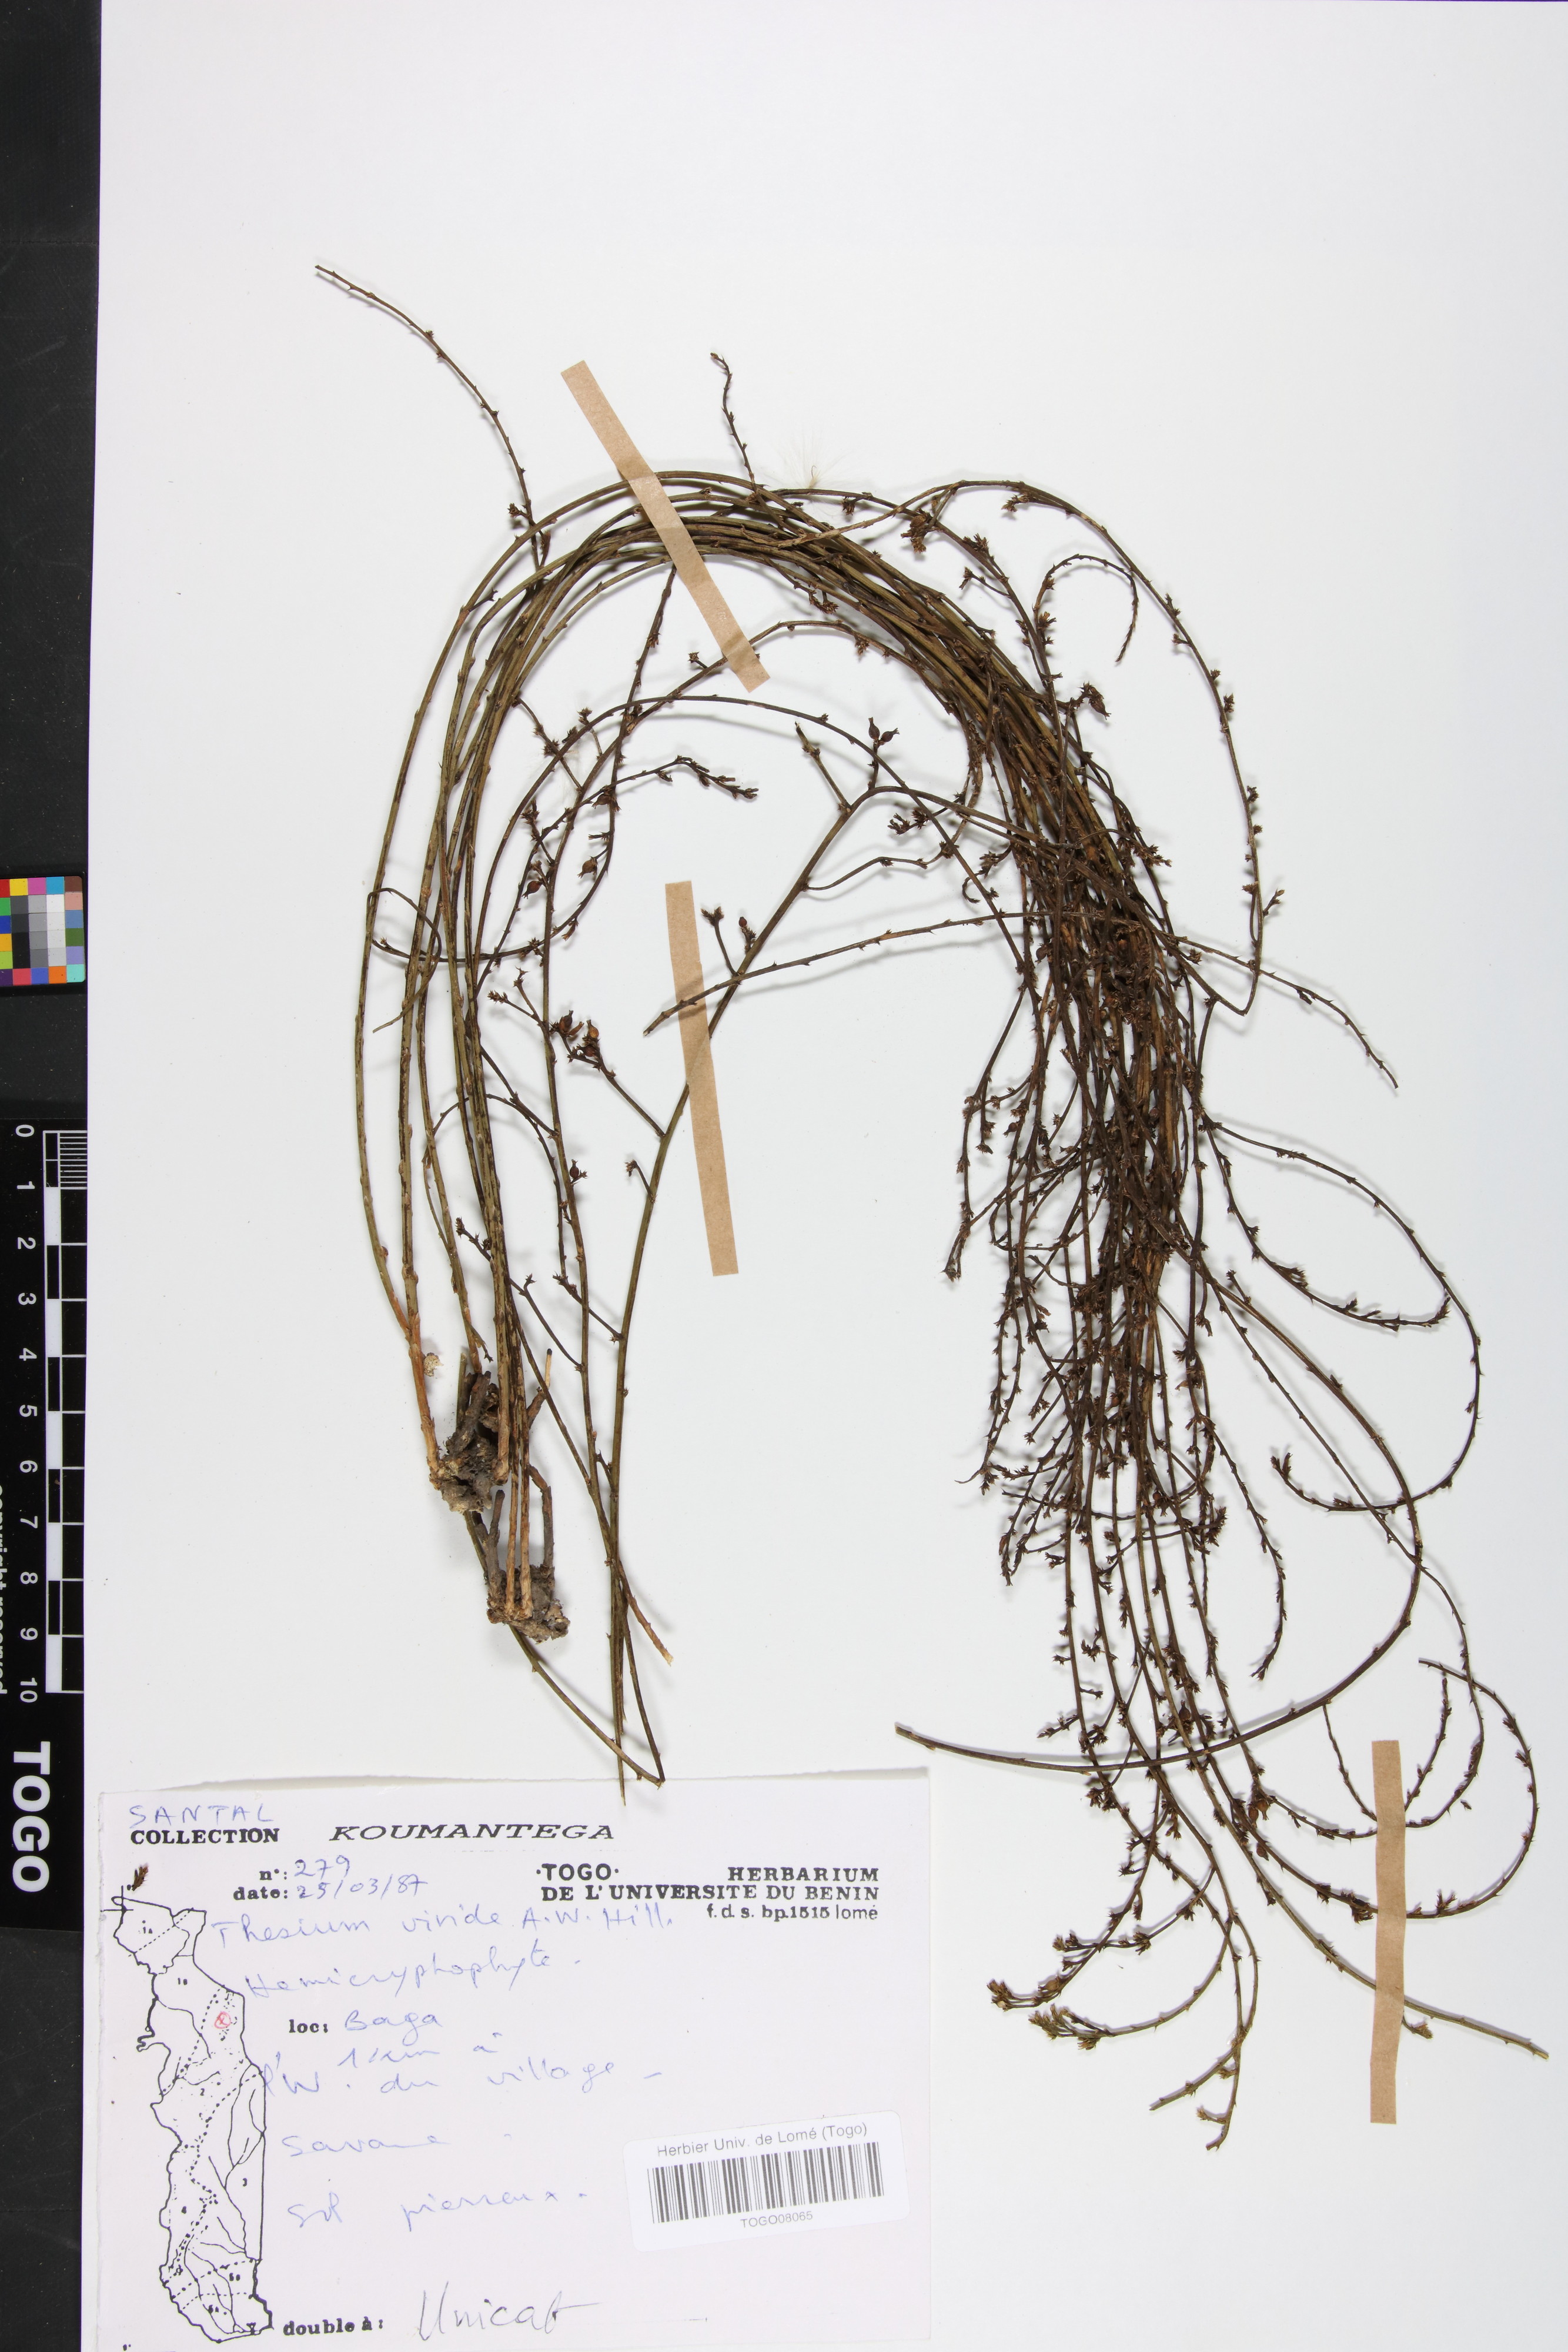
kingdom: Plantae
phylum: Tracheophyta
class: Magnoliopsida
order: Santalales
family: Thesiaceae
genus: Thesium
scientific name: Thesium viride
